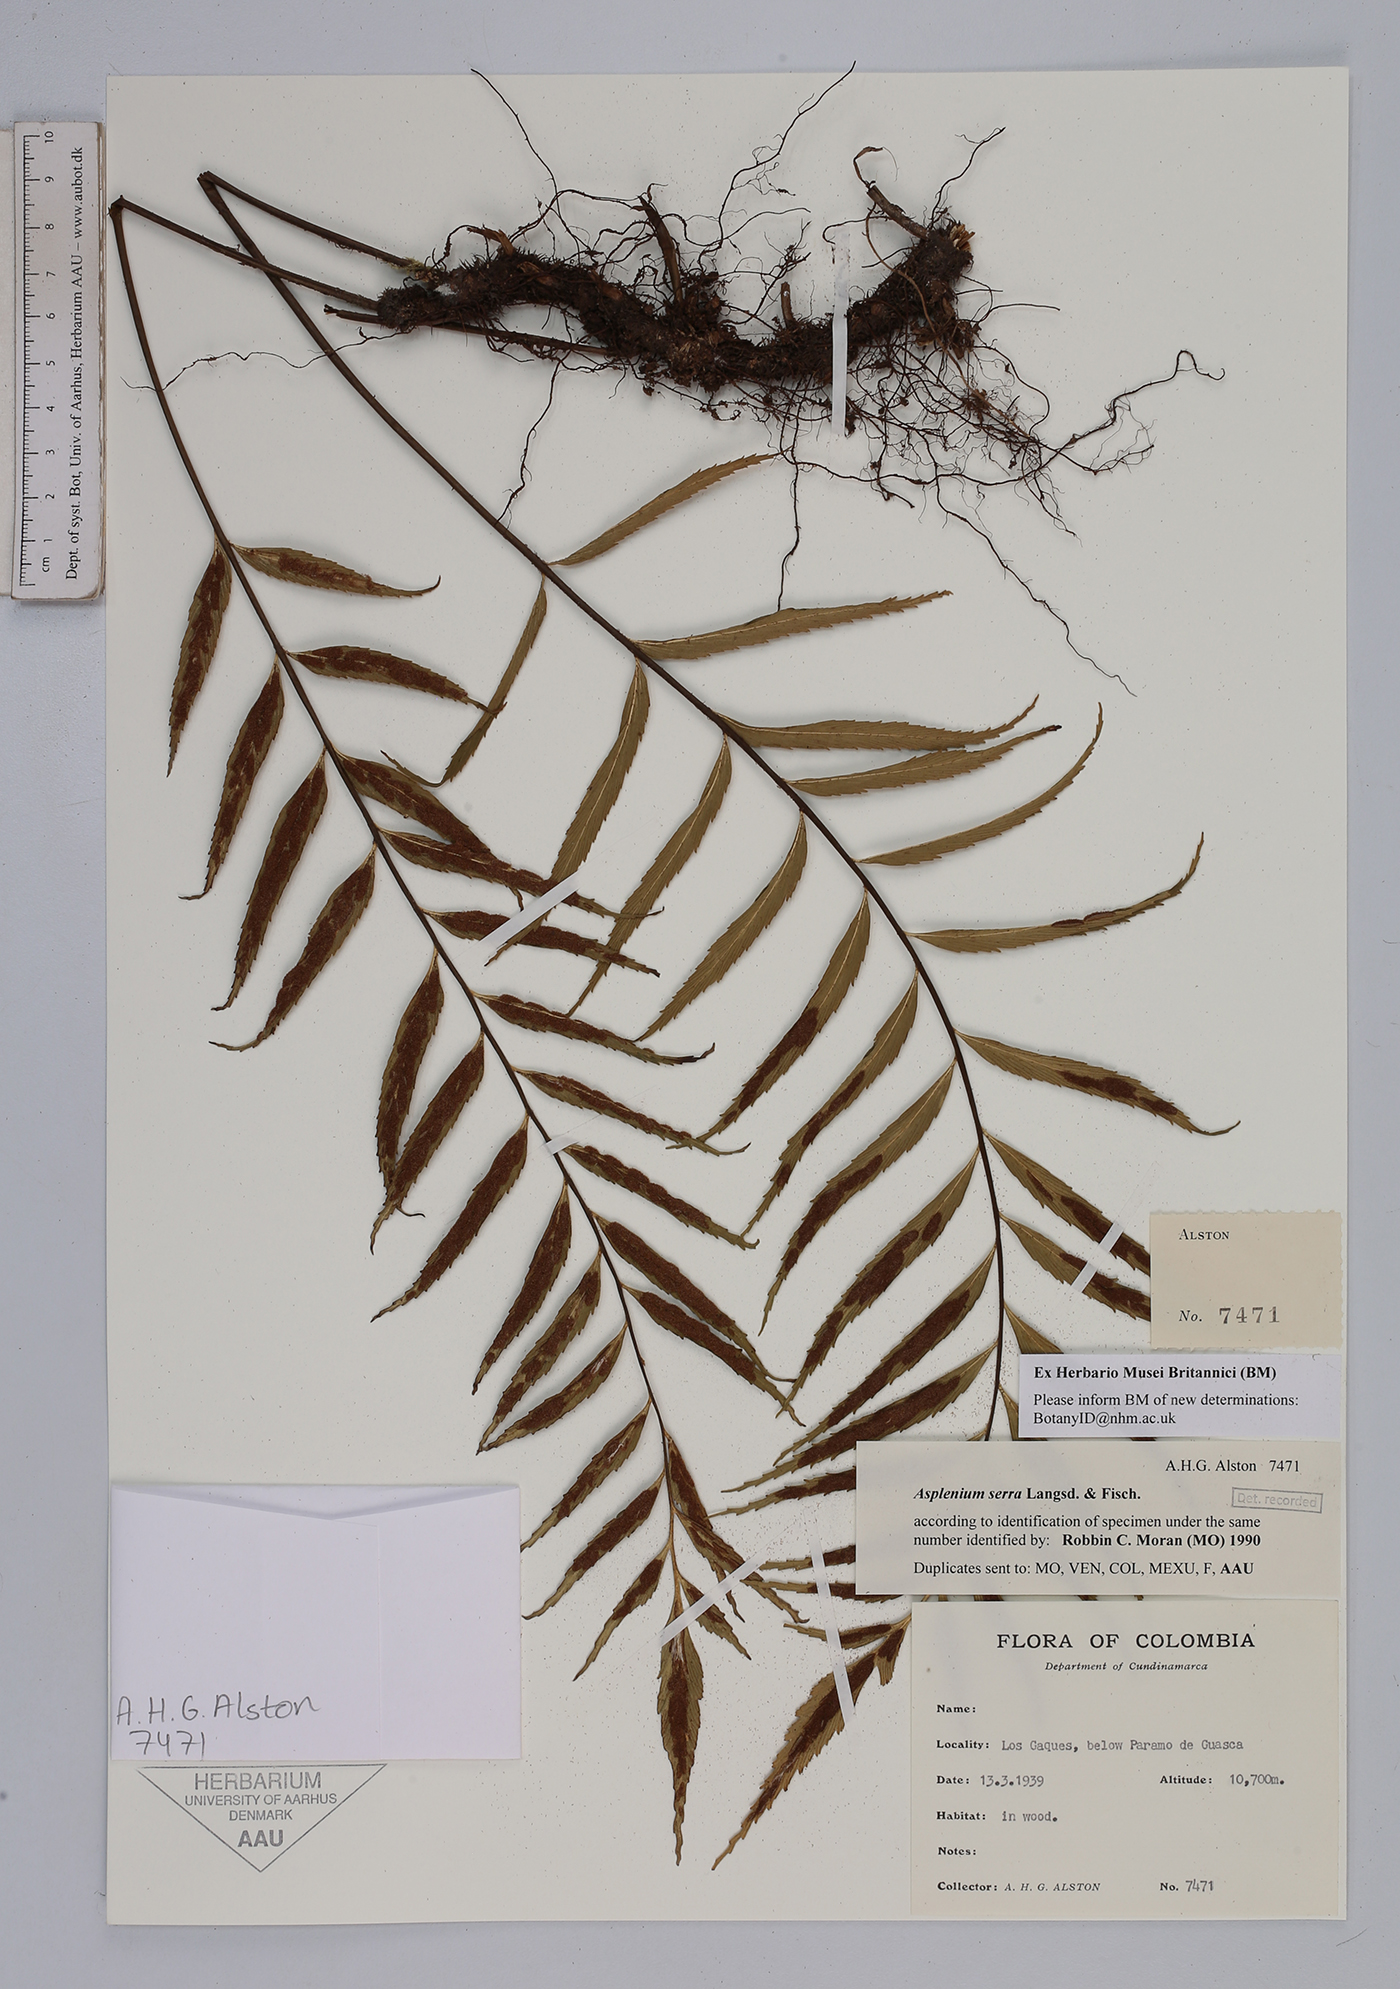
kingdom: Plantae
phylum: Tracheophyta
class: Polypodiopsida
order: Polypodiales
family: Aspleniaceae
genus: Asplenium
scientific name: Asplenium serra
